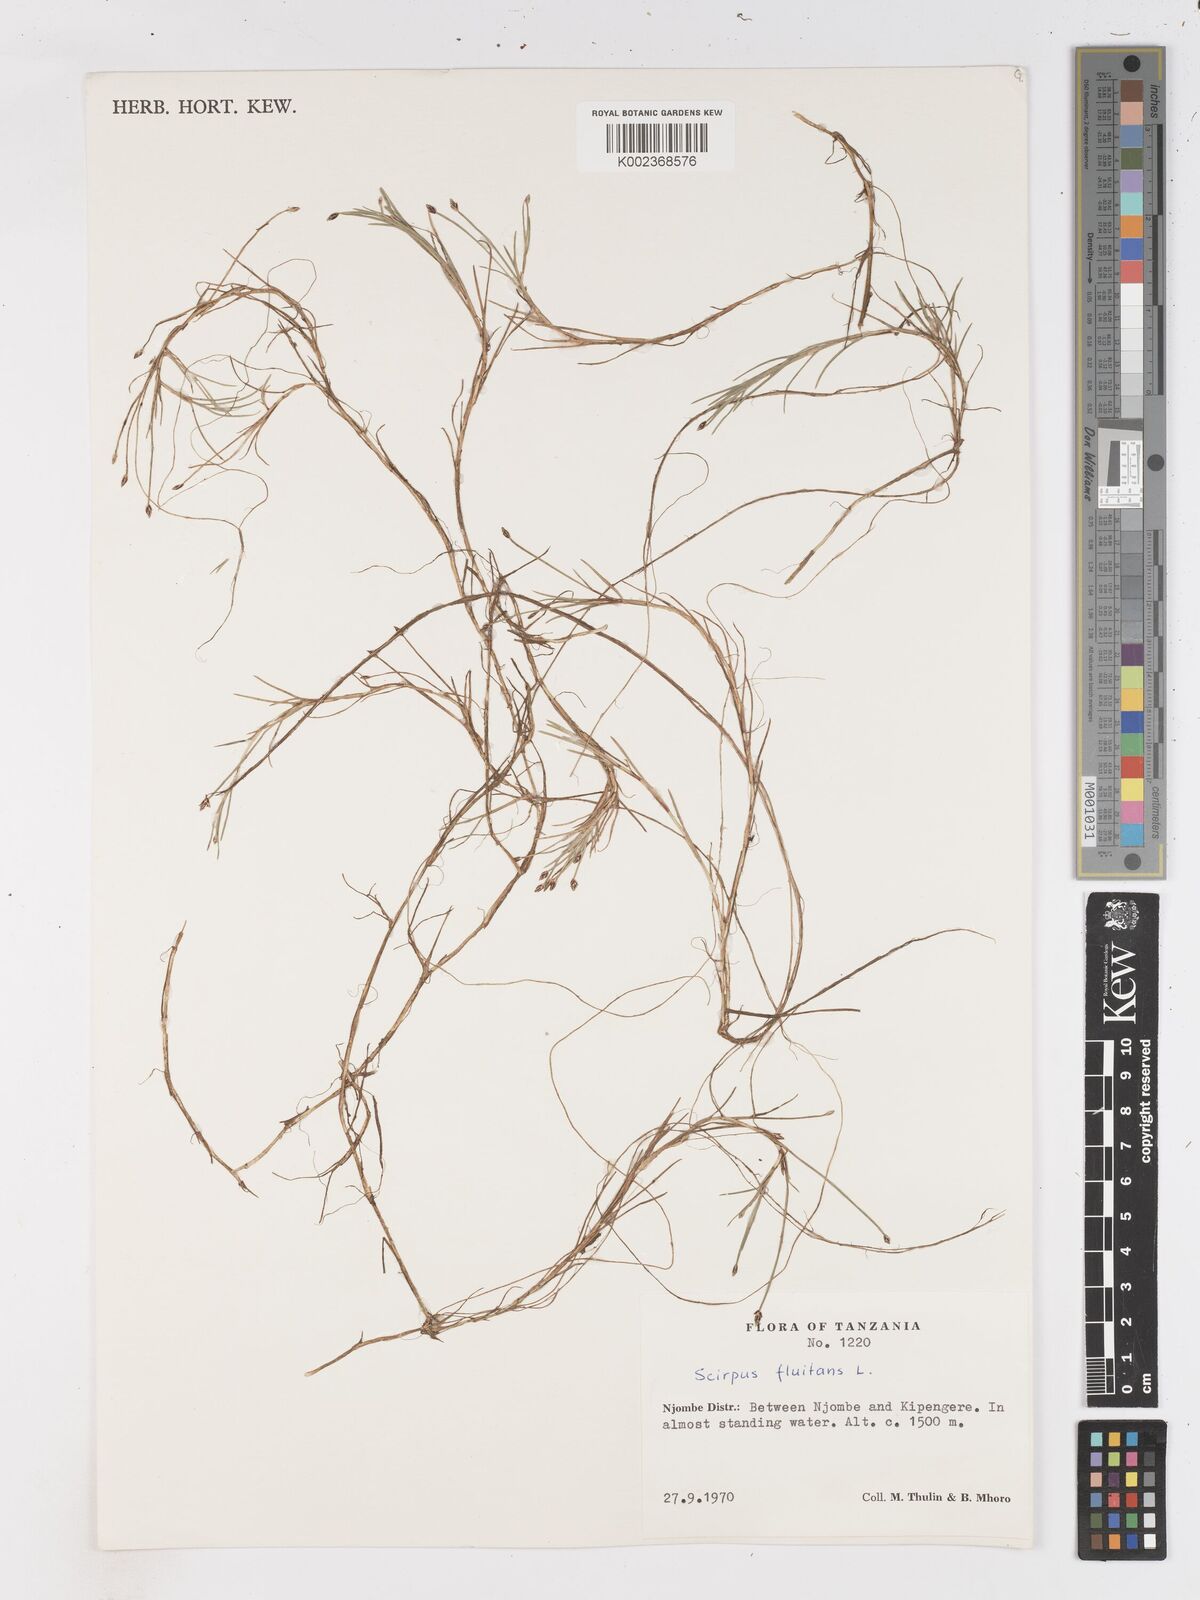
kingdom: Plantae
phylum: Tracheophyta
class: Liliopsida
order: Poales
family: Cyperaceae
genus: Isolepis
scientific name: Isolepis fluitans
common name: Floating club-rush
